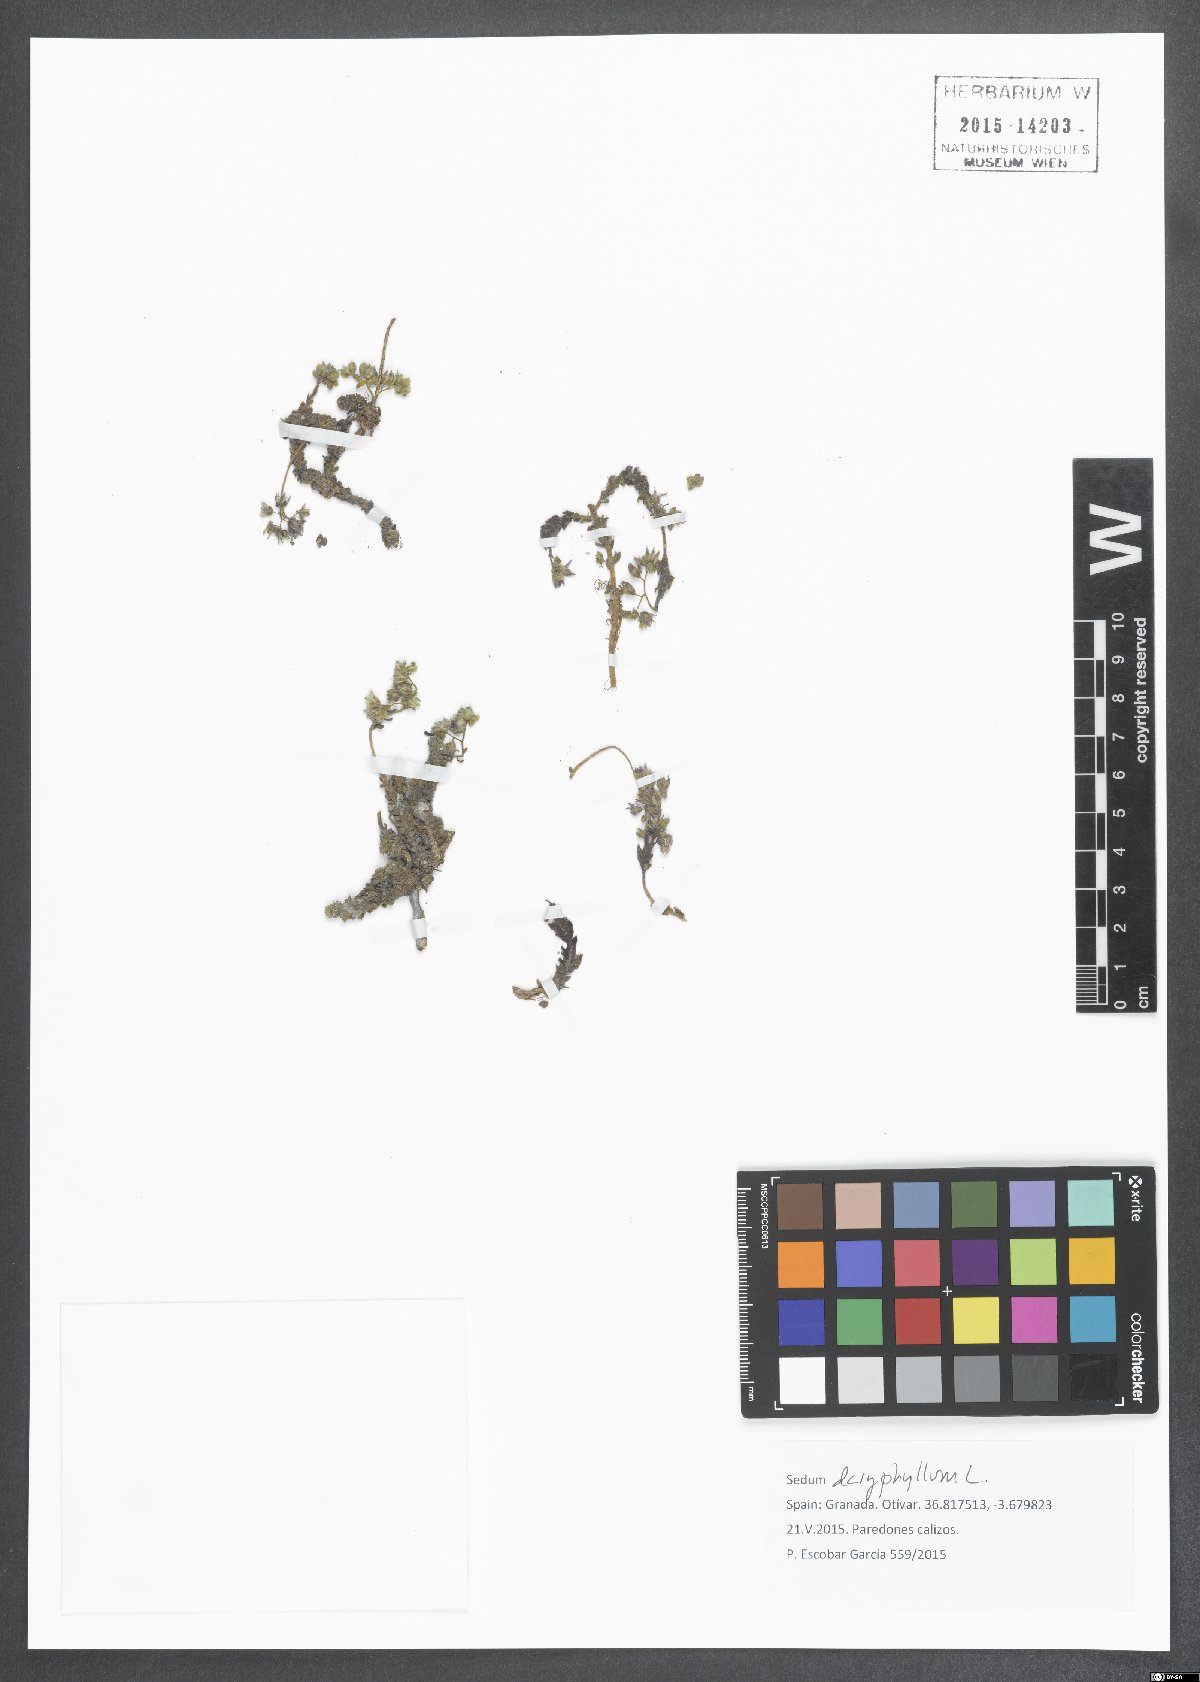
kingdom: Plantae
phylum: Tracheophyta
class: Magnoliopsida
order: Saxifragales
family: Crassulaceae
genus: Sedum
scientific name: Sedum dasyphyllum
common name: Thick-leaf stonecrop
